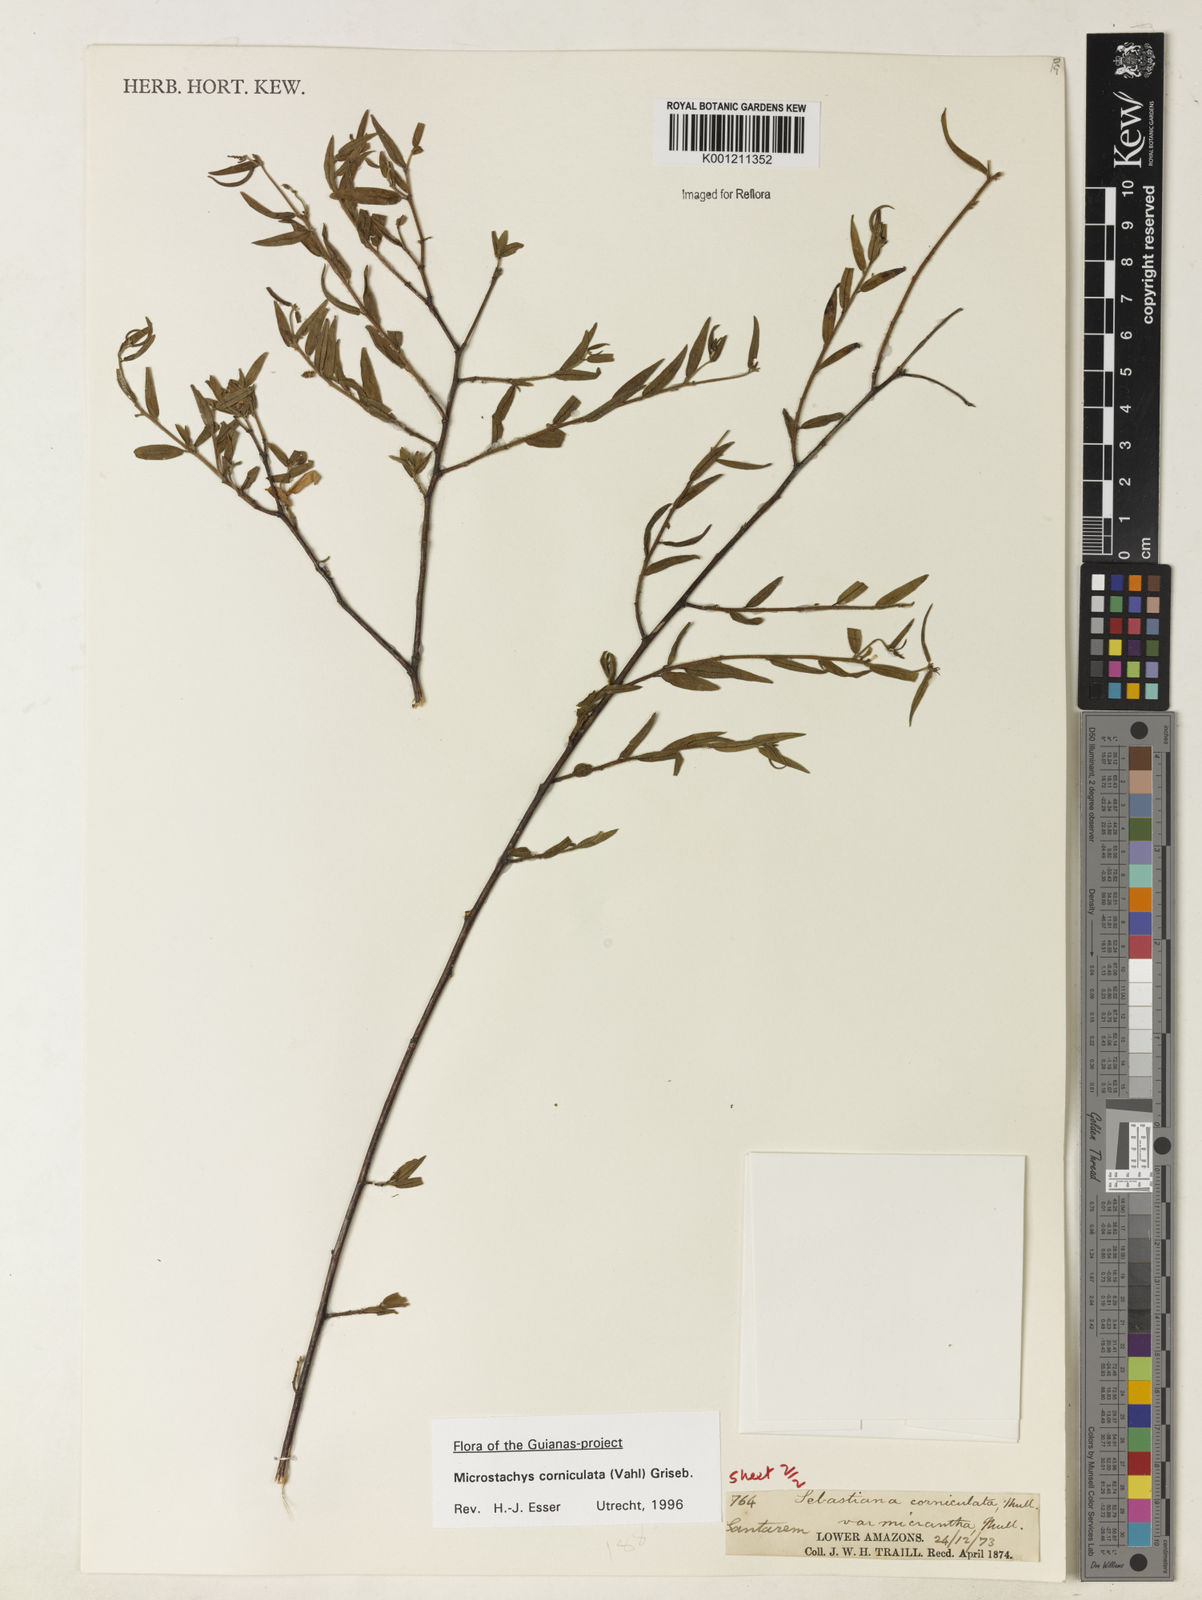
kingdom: Plantae
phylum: Tracheophyta
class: Magnoliopsida
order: Malpighiales
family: Euphorbiaceae
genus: Microstachys
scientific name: Microstachys corniculata
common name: Hato tejas
